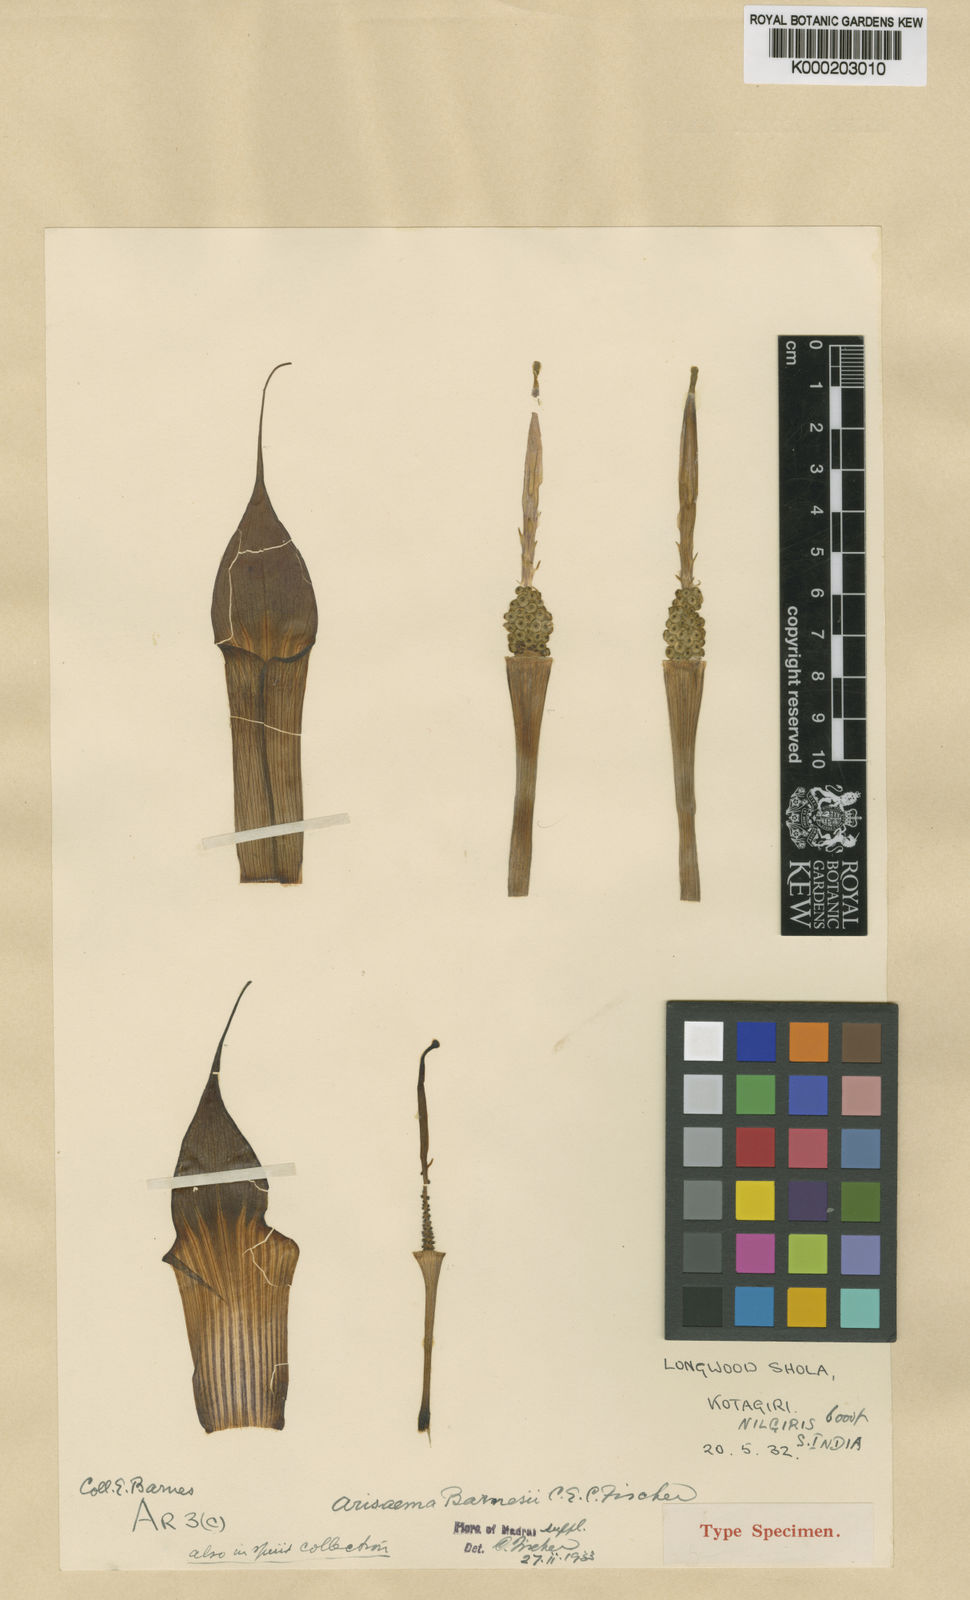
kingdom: Plantae
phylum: Tracheophyta
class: Liliopsida
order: Alismatales
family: Araceae
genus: Arisaema
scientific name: Arisaema barnesii
